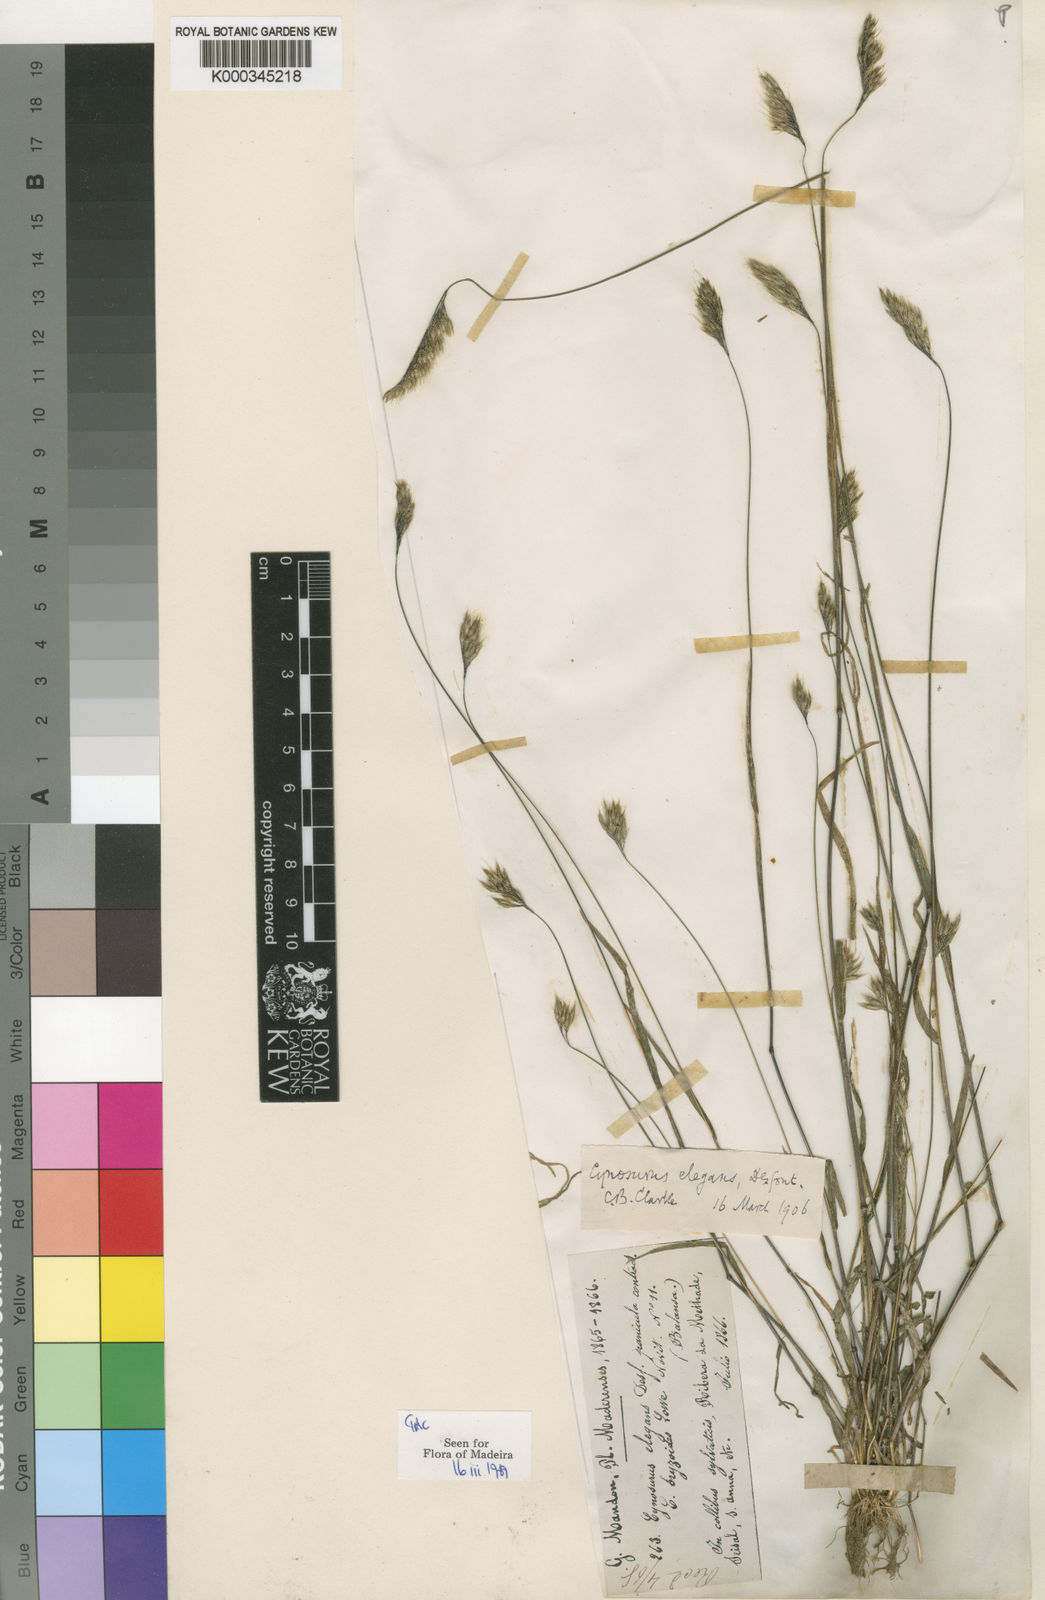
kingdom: Plantae
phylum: Tracheophyta
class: Liliopsida
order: Poales
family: Poaceae
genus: Cynosurus
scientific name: Cynosurus elegans
